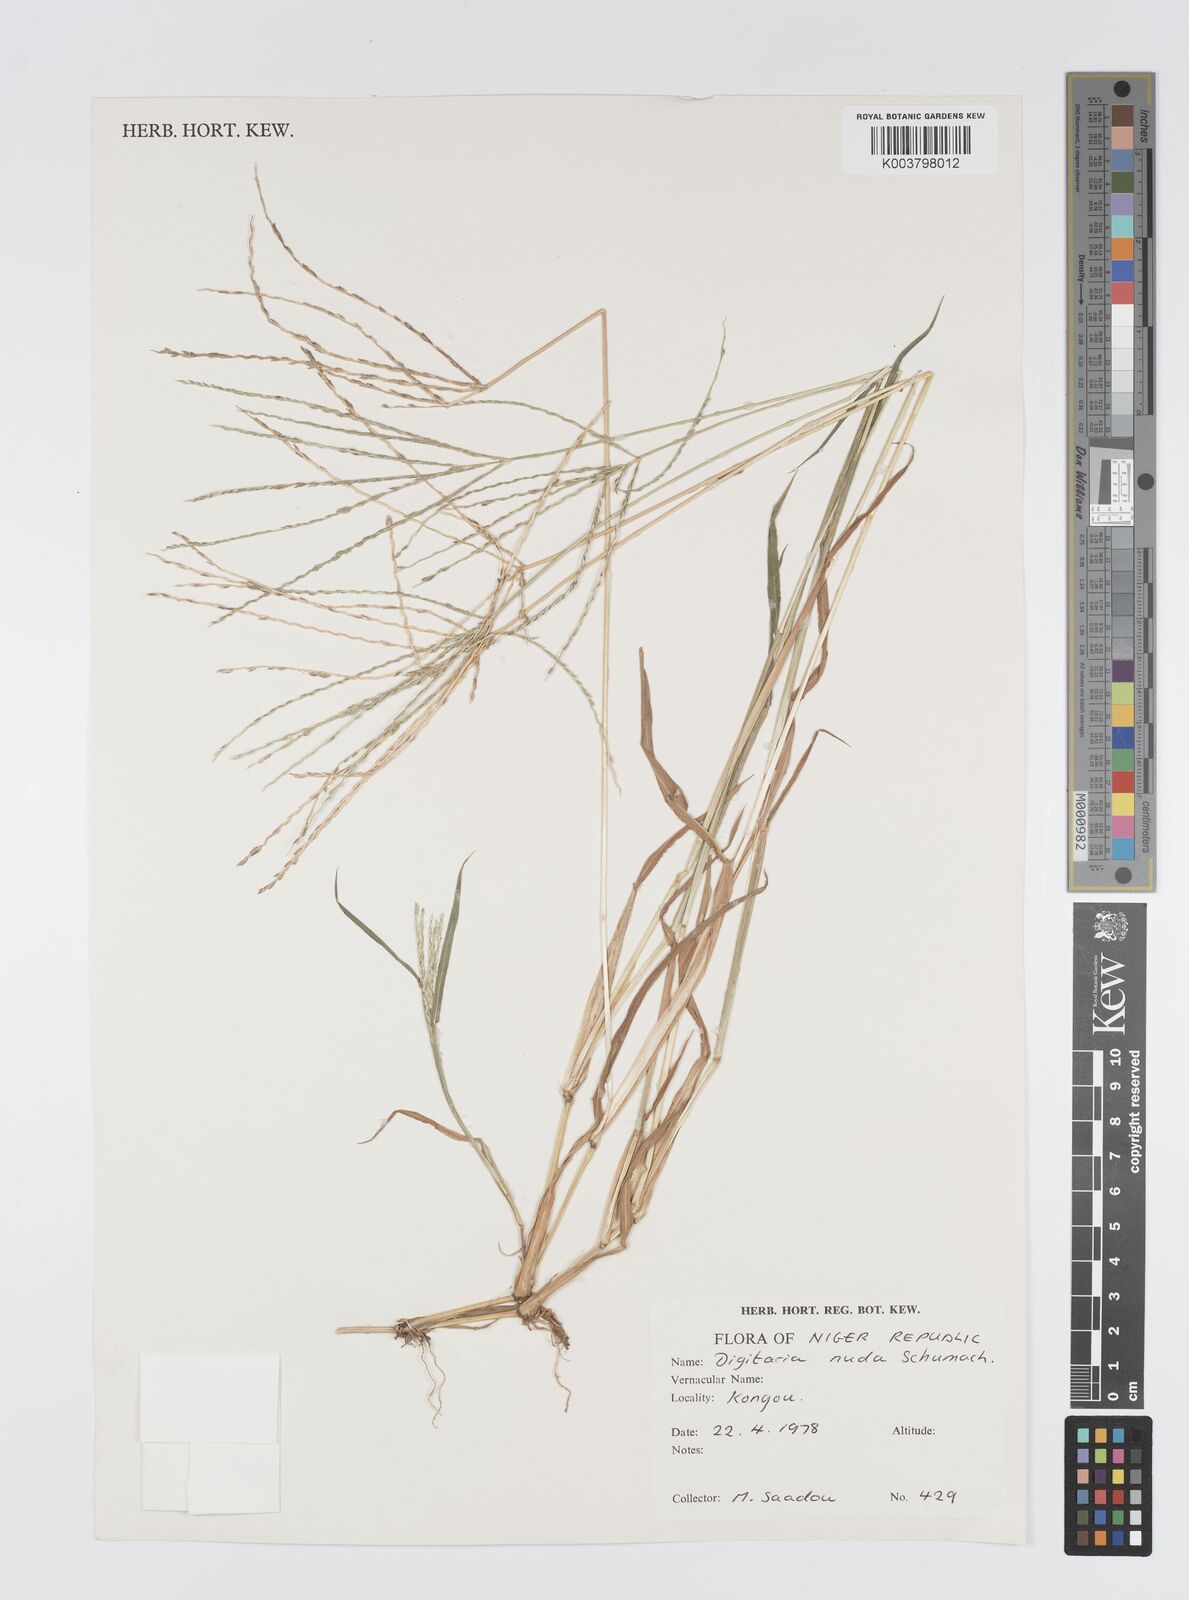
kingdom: Plantae
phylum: Tracheophyta
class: Liliopsida
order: Poales
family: Poaceae
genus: Digitaria
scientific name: Digitaria nuda
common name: Naked crabgrass
